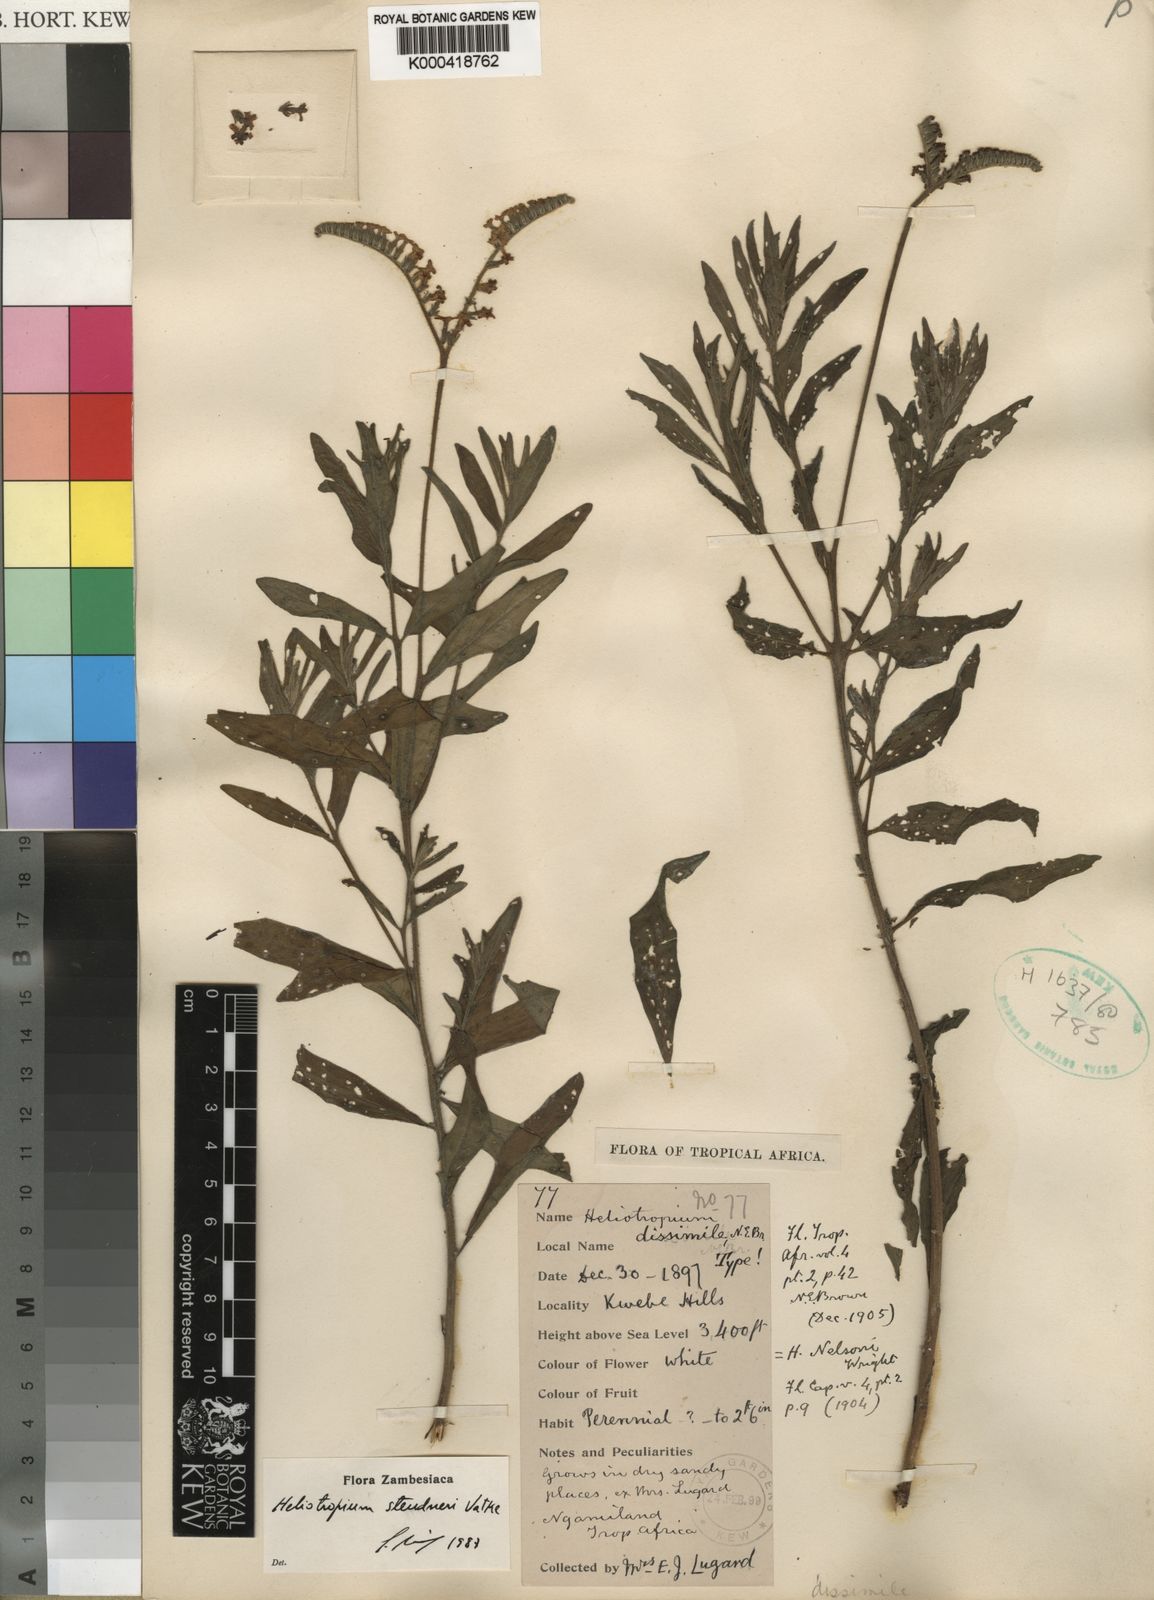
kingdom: Plantae
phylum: Tracheophyta
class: Magnoliopsida
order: Boraginales
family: Heliotropiaceae
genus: Heliotropium
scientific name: Heliotropium steudneri
